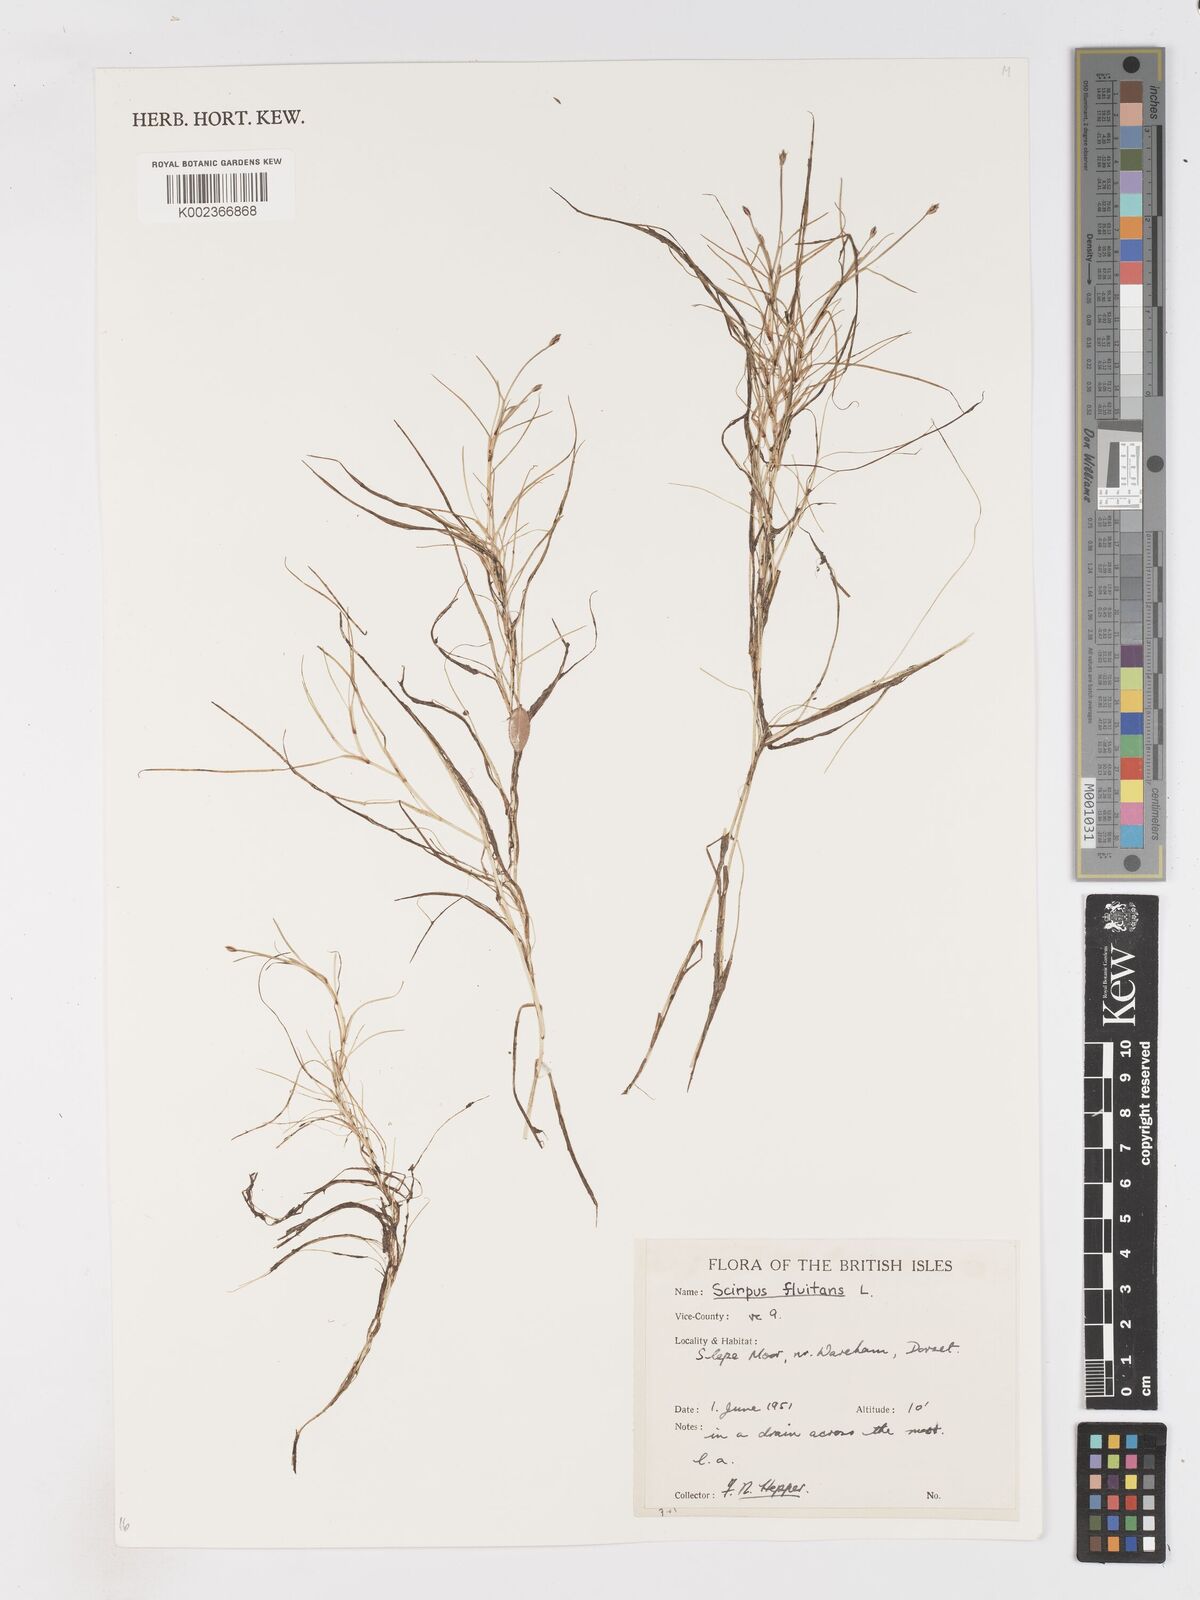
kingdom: Plantae
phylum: Tracheophyta
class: Liliopsida
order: Poales
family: Cyperaceae
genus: Isolepis
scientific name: Isolepis fluitans
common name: Floating club-rush
